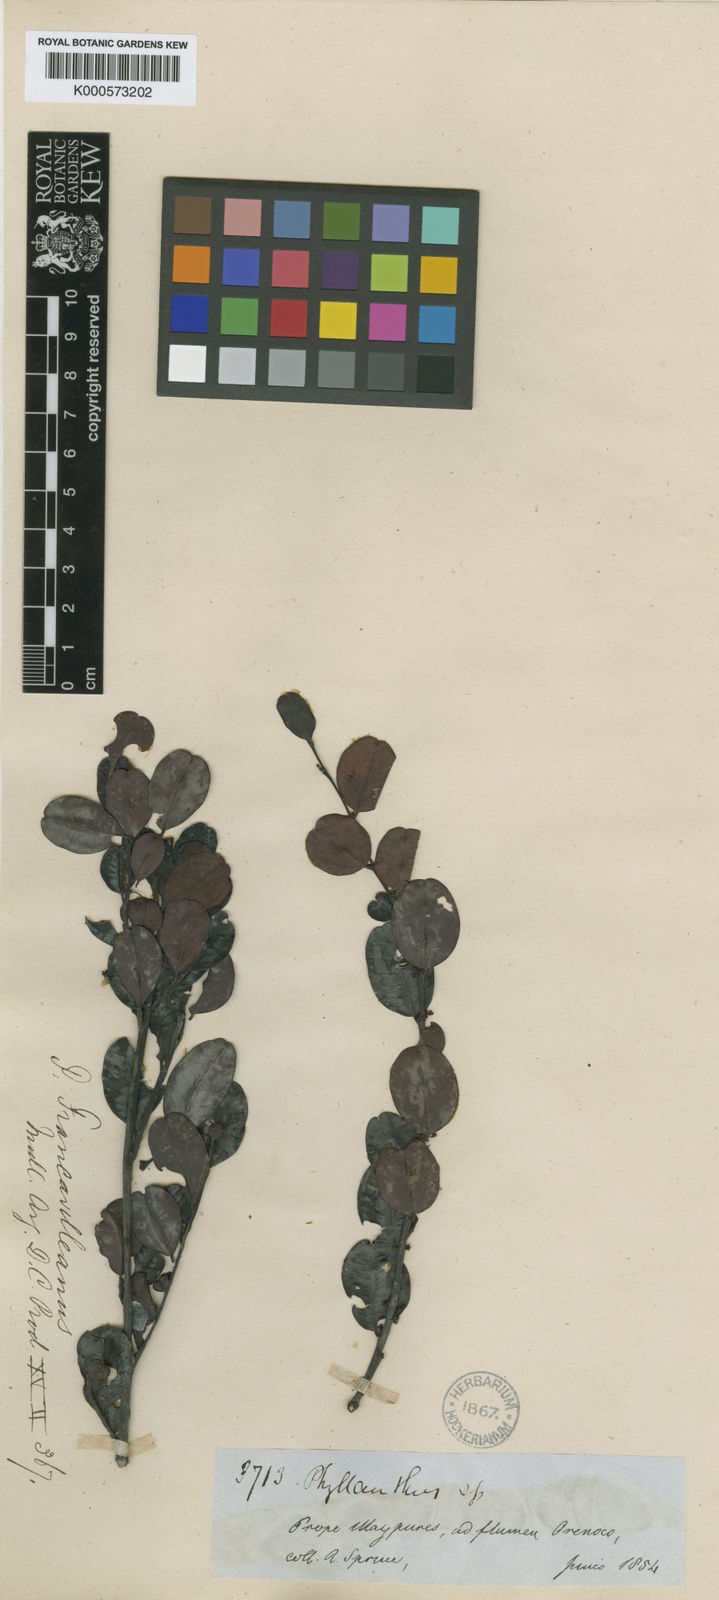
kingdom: Plantae
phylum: Tracheophyta
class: Magnoliopsida
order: Malpighiales
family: Phyllanthaceae
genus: Phyllanthus
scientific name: Phyllanthus
